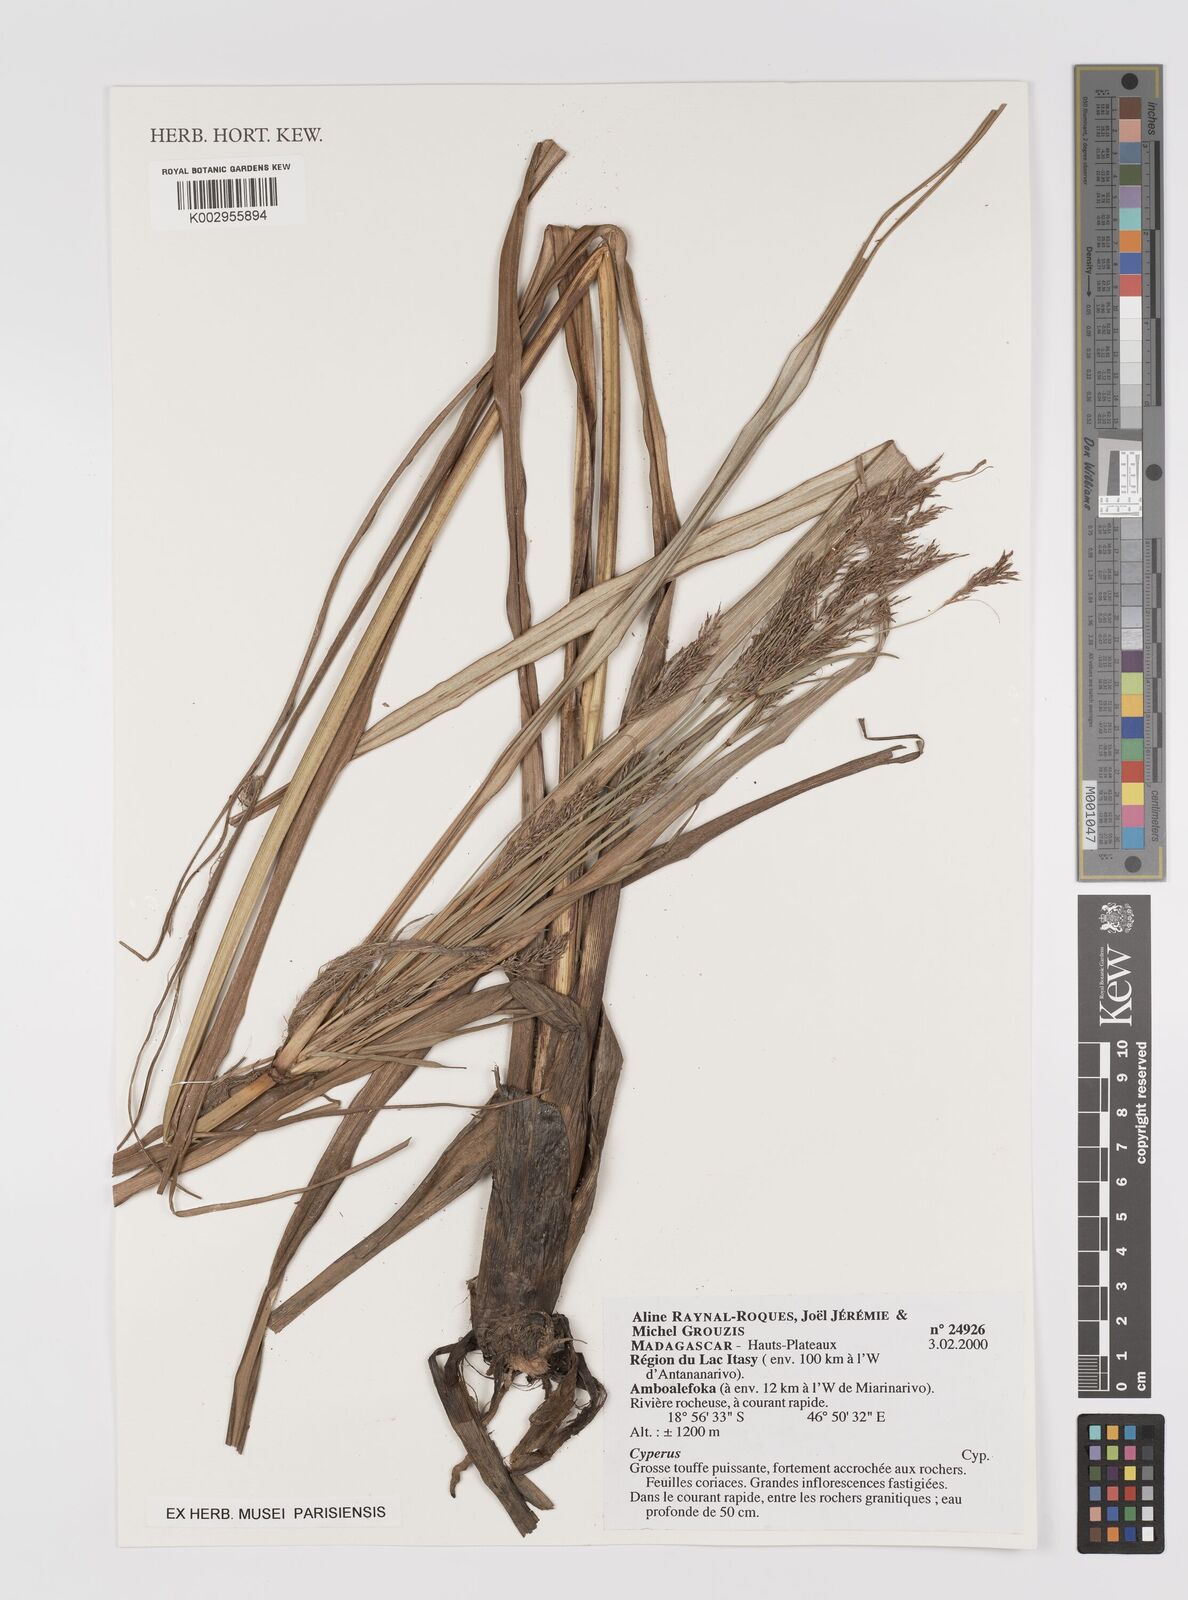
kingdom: Plantae
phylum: Tracheophyta
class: Liliopsida
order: Poales
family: Cyperaceae
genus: Cyperus
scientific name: Cyperus
